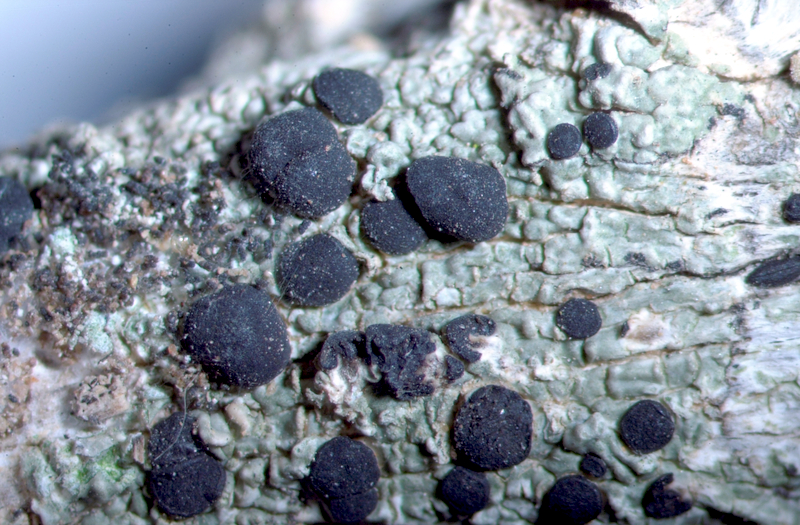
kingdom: Fungi
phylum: Ascomycota
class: Arthoniomycetes
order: Arthoniales
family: Chrysotrichaceae
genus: Chrysothrix
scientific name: Chrysothrix candelaris
